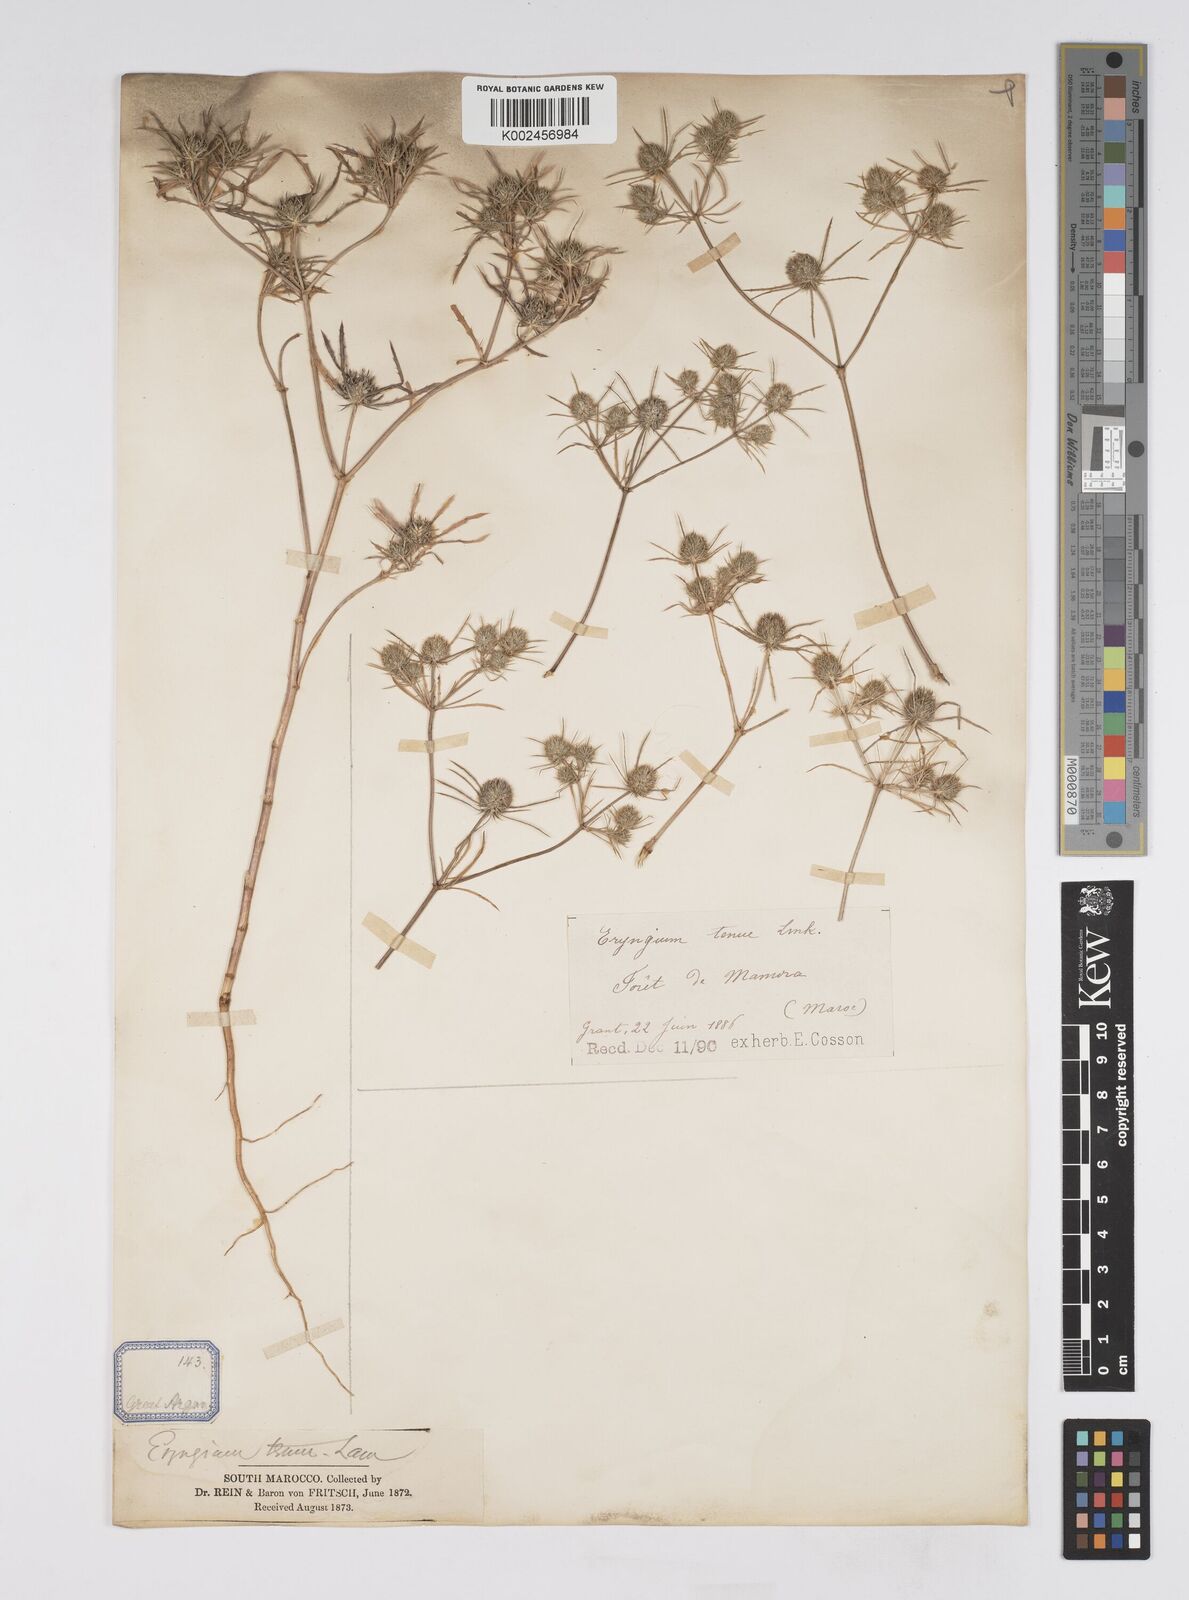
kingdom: Plantae
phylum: Tracheophyta
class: Magnoliopsida
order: Apiales
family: Apiaceae
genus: Eryngium
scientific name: Eryngium
